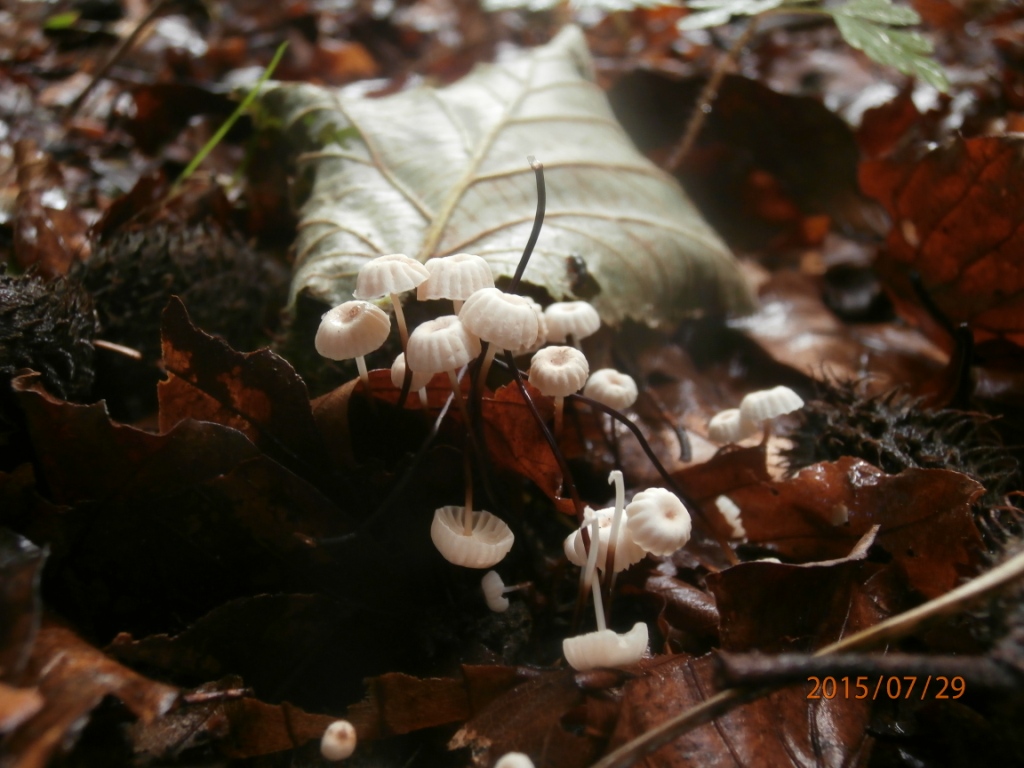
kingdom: Fungi
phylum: Basidiomycota
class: Agaricomycetes
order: Agaricales
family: Marasmiaceae
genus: Marasmius
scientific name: Marasmius rotula
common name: hjul-bruskhat
